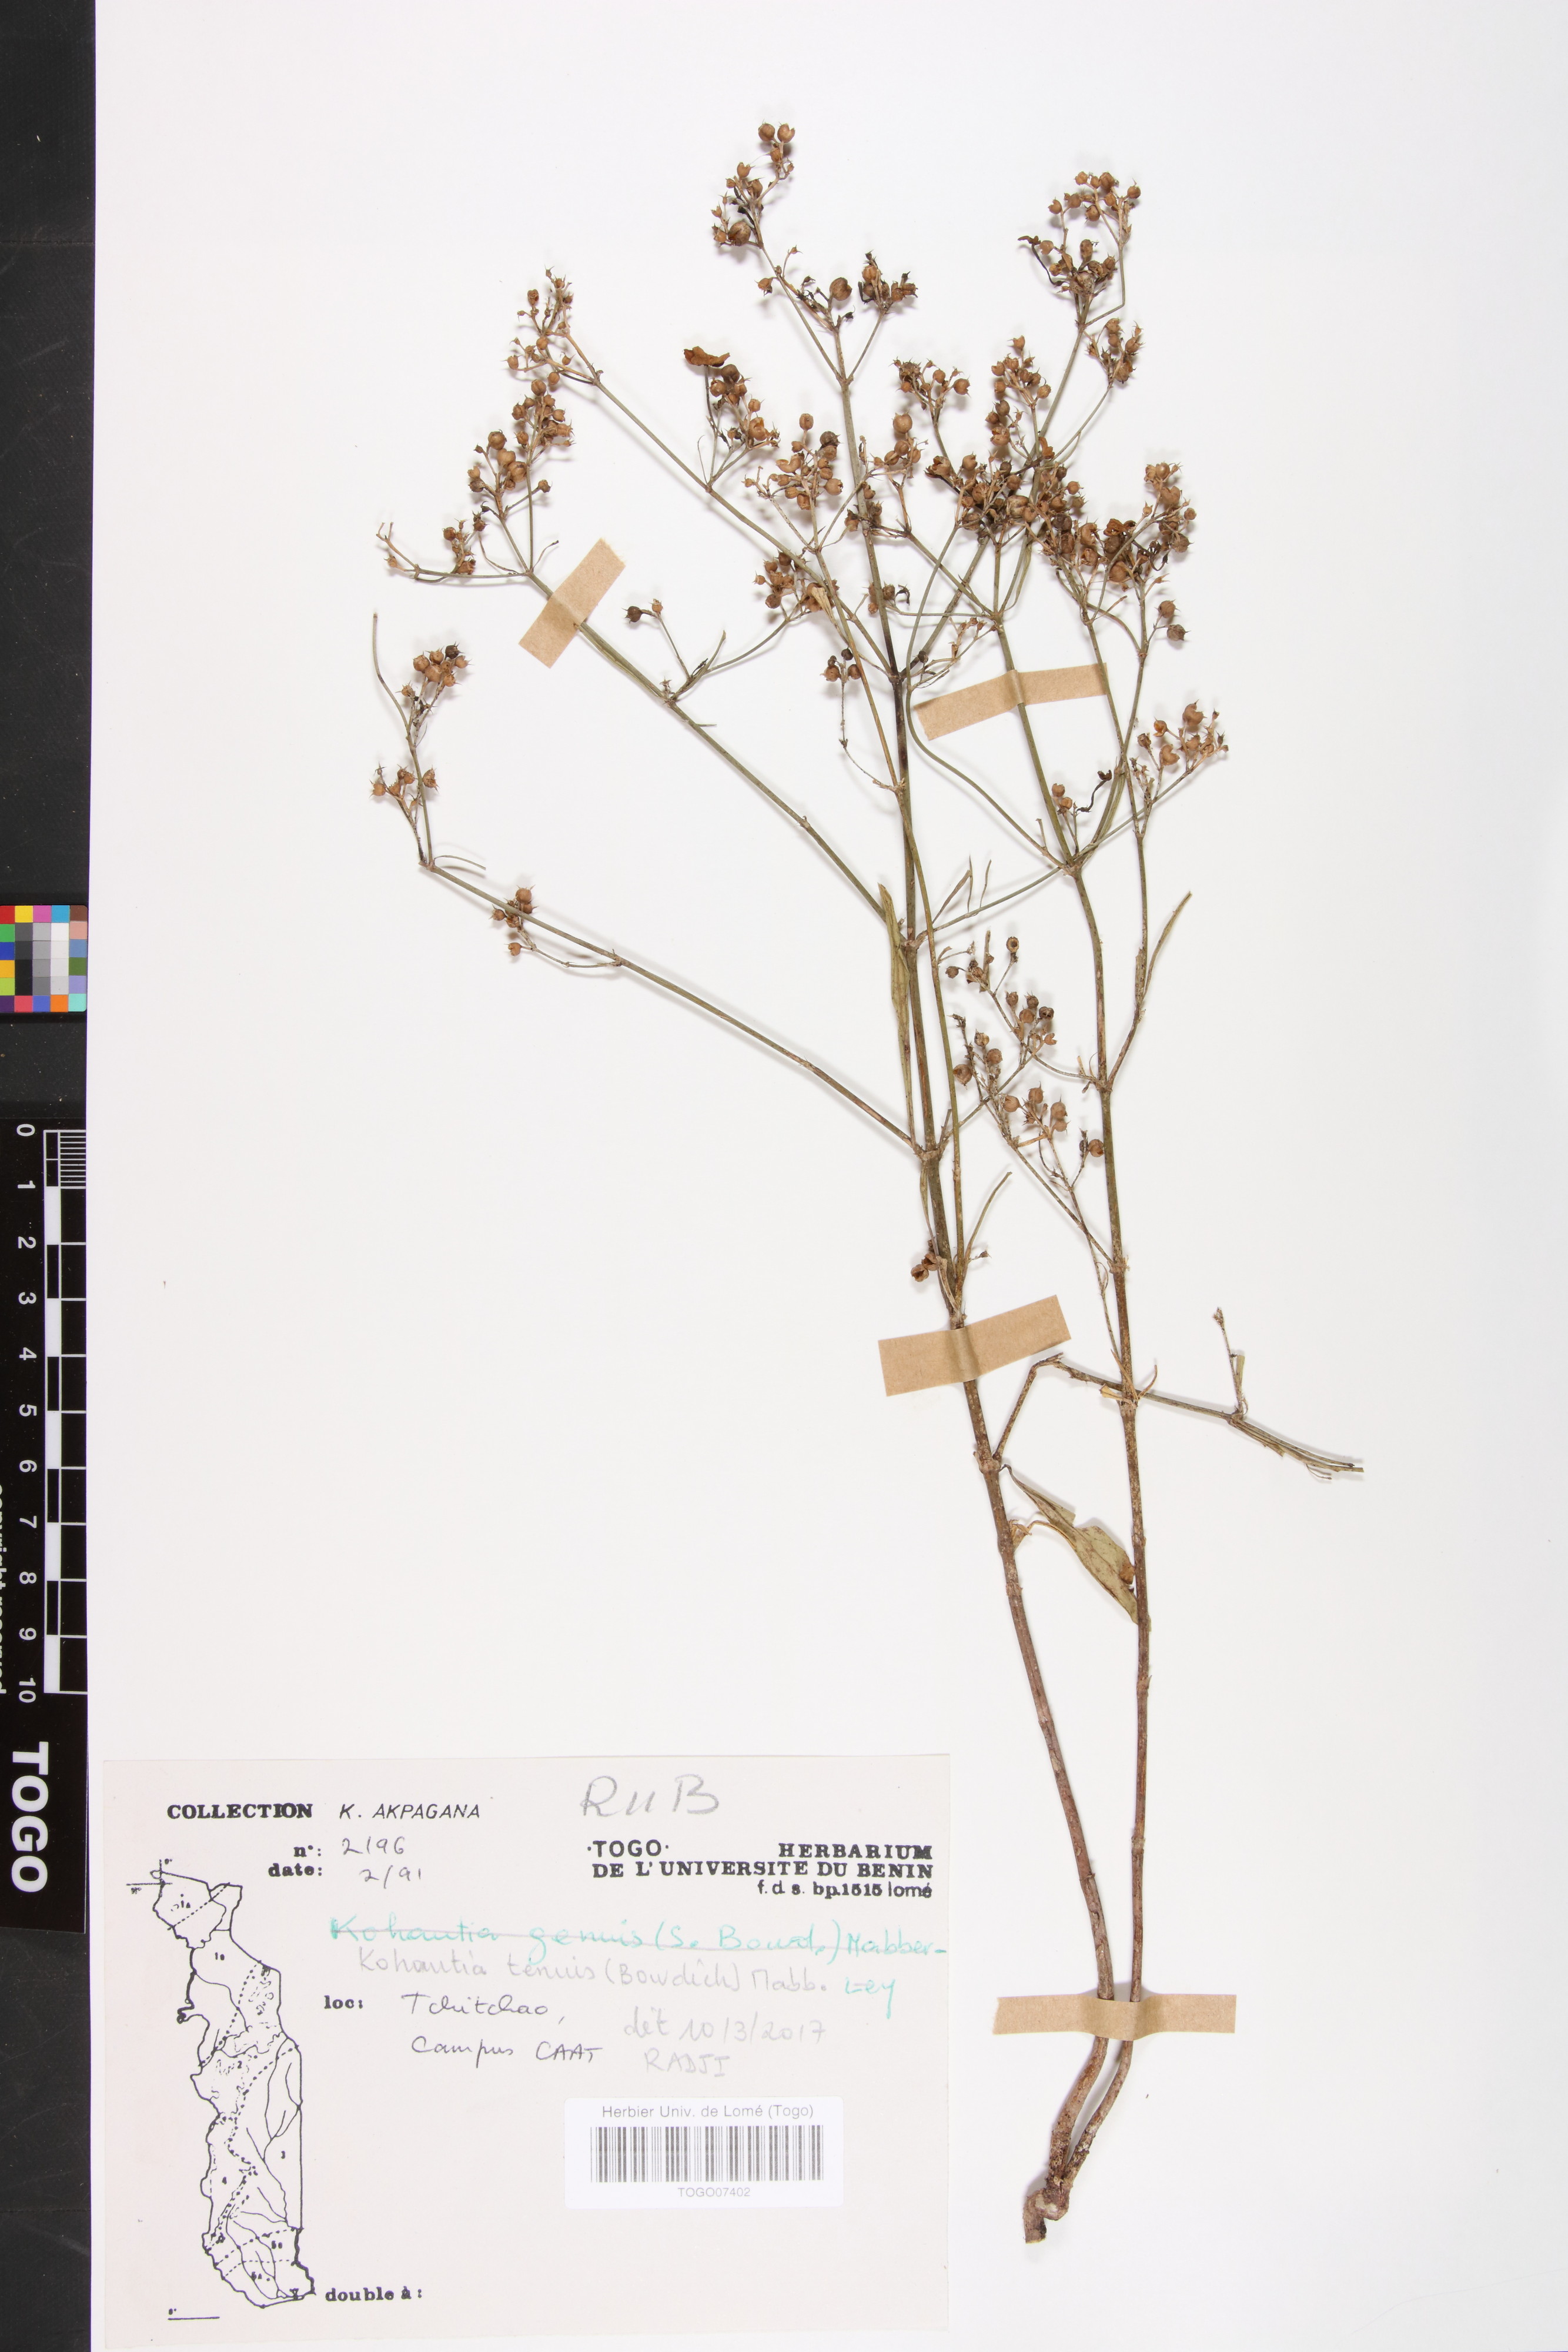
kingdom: Plantae
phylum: Tracheophyta
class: Magnoliopsida
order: Gentianales
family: Rubiaceae
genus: Kohautia
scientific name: Kohautia
